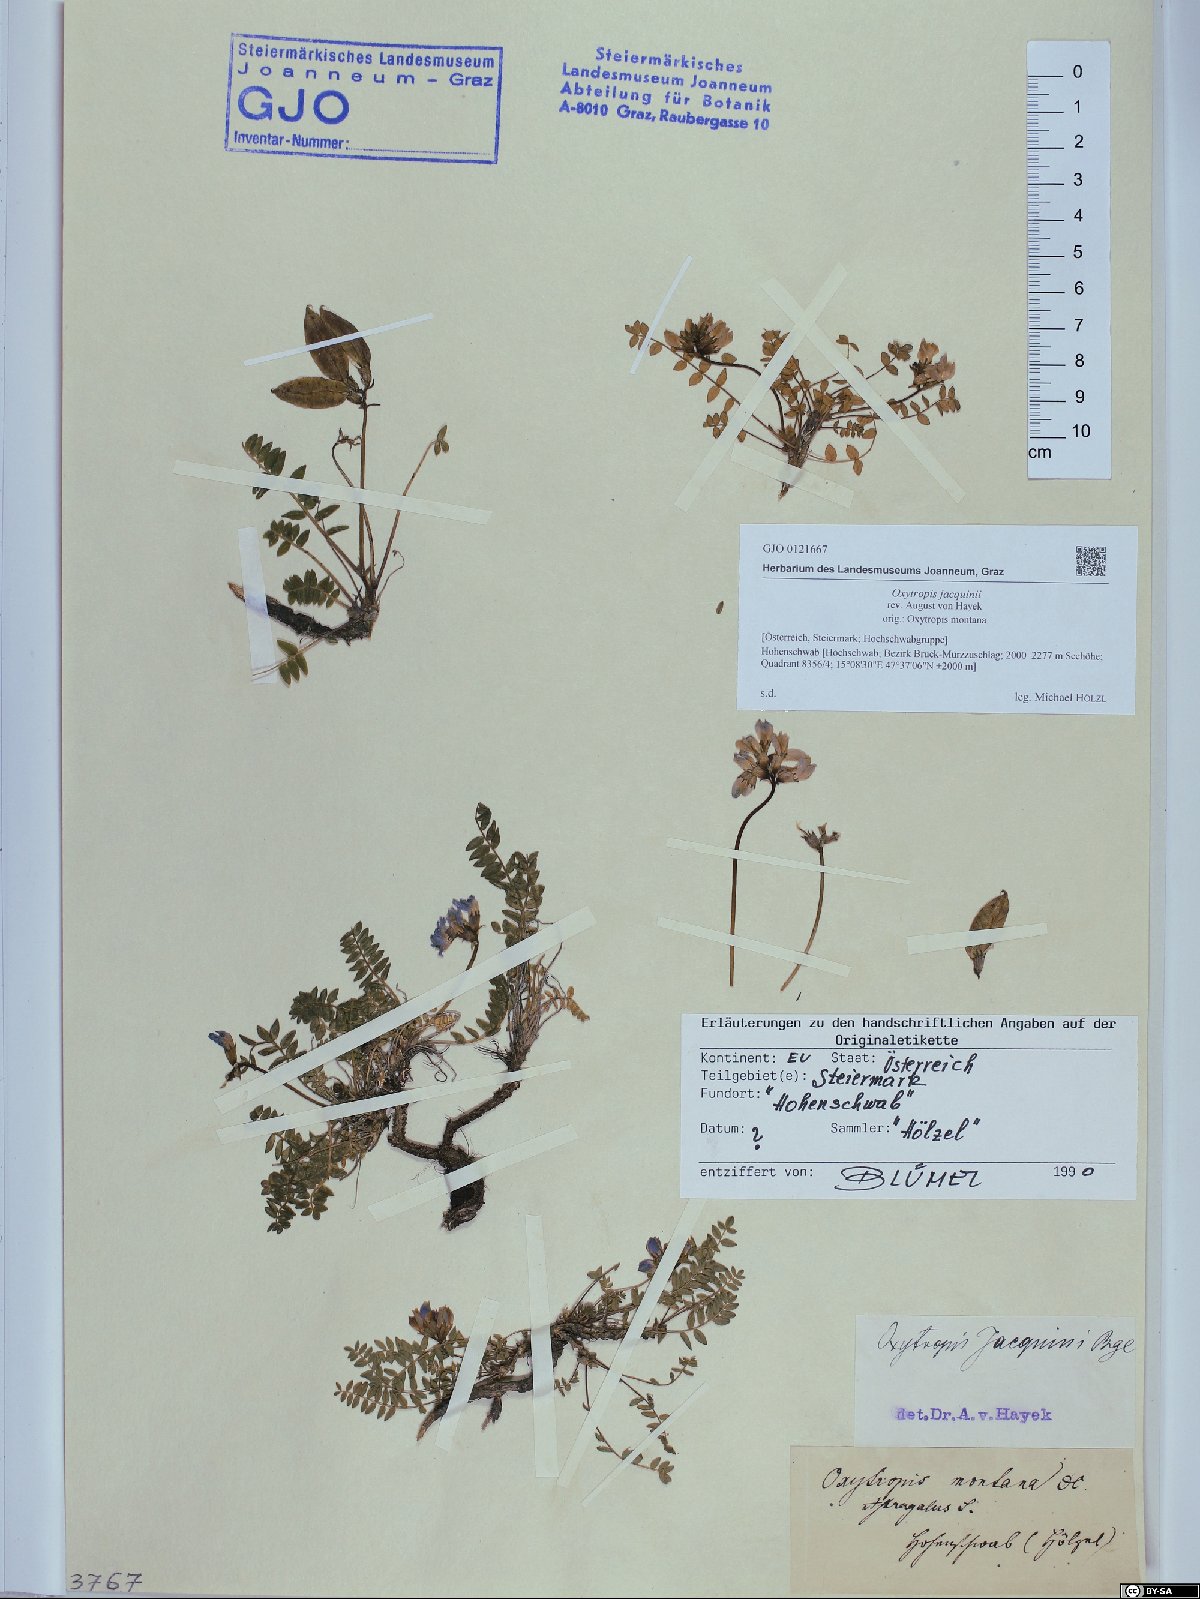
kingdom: Plantae
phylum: Tracheophyta
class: Magnoliopsida
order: Fabales
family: Fabaceae
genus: Oxytropis
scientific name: Oxytropis montana
